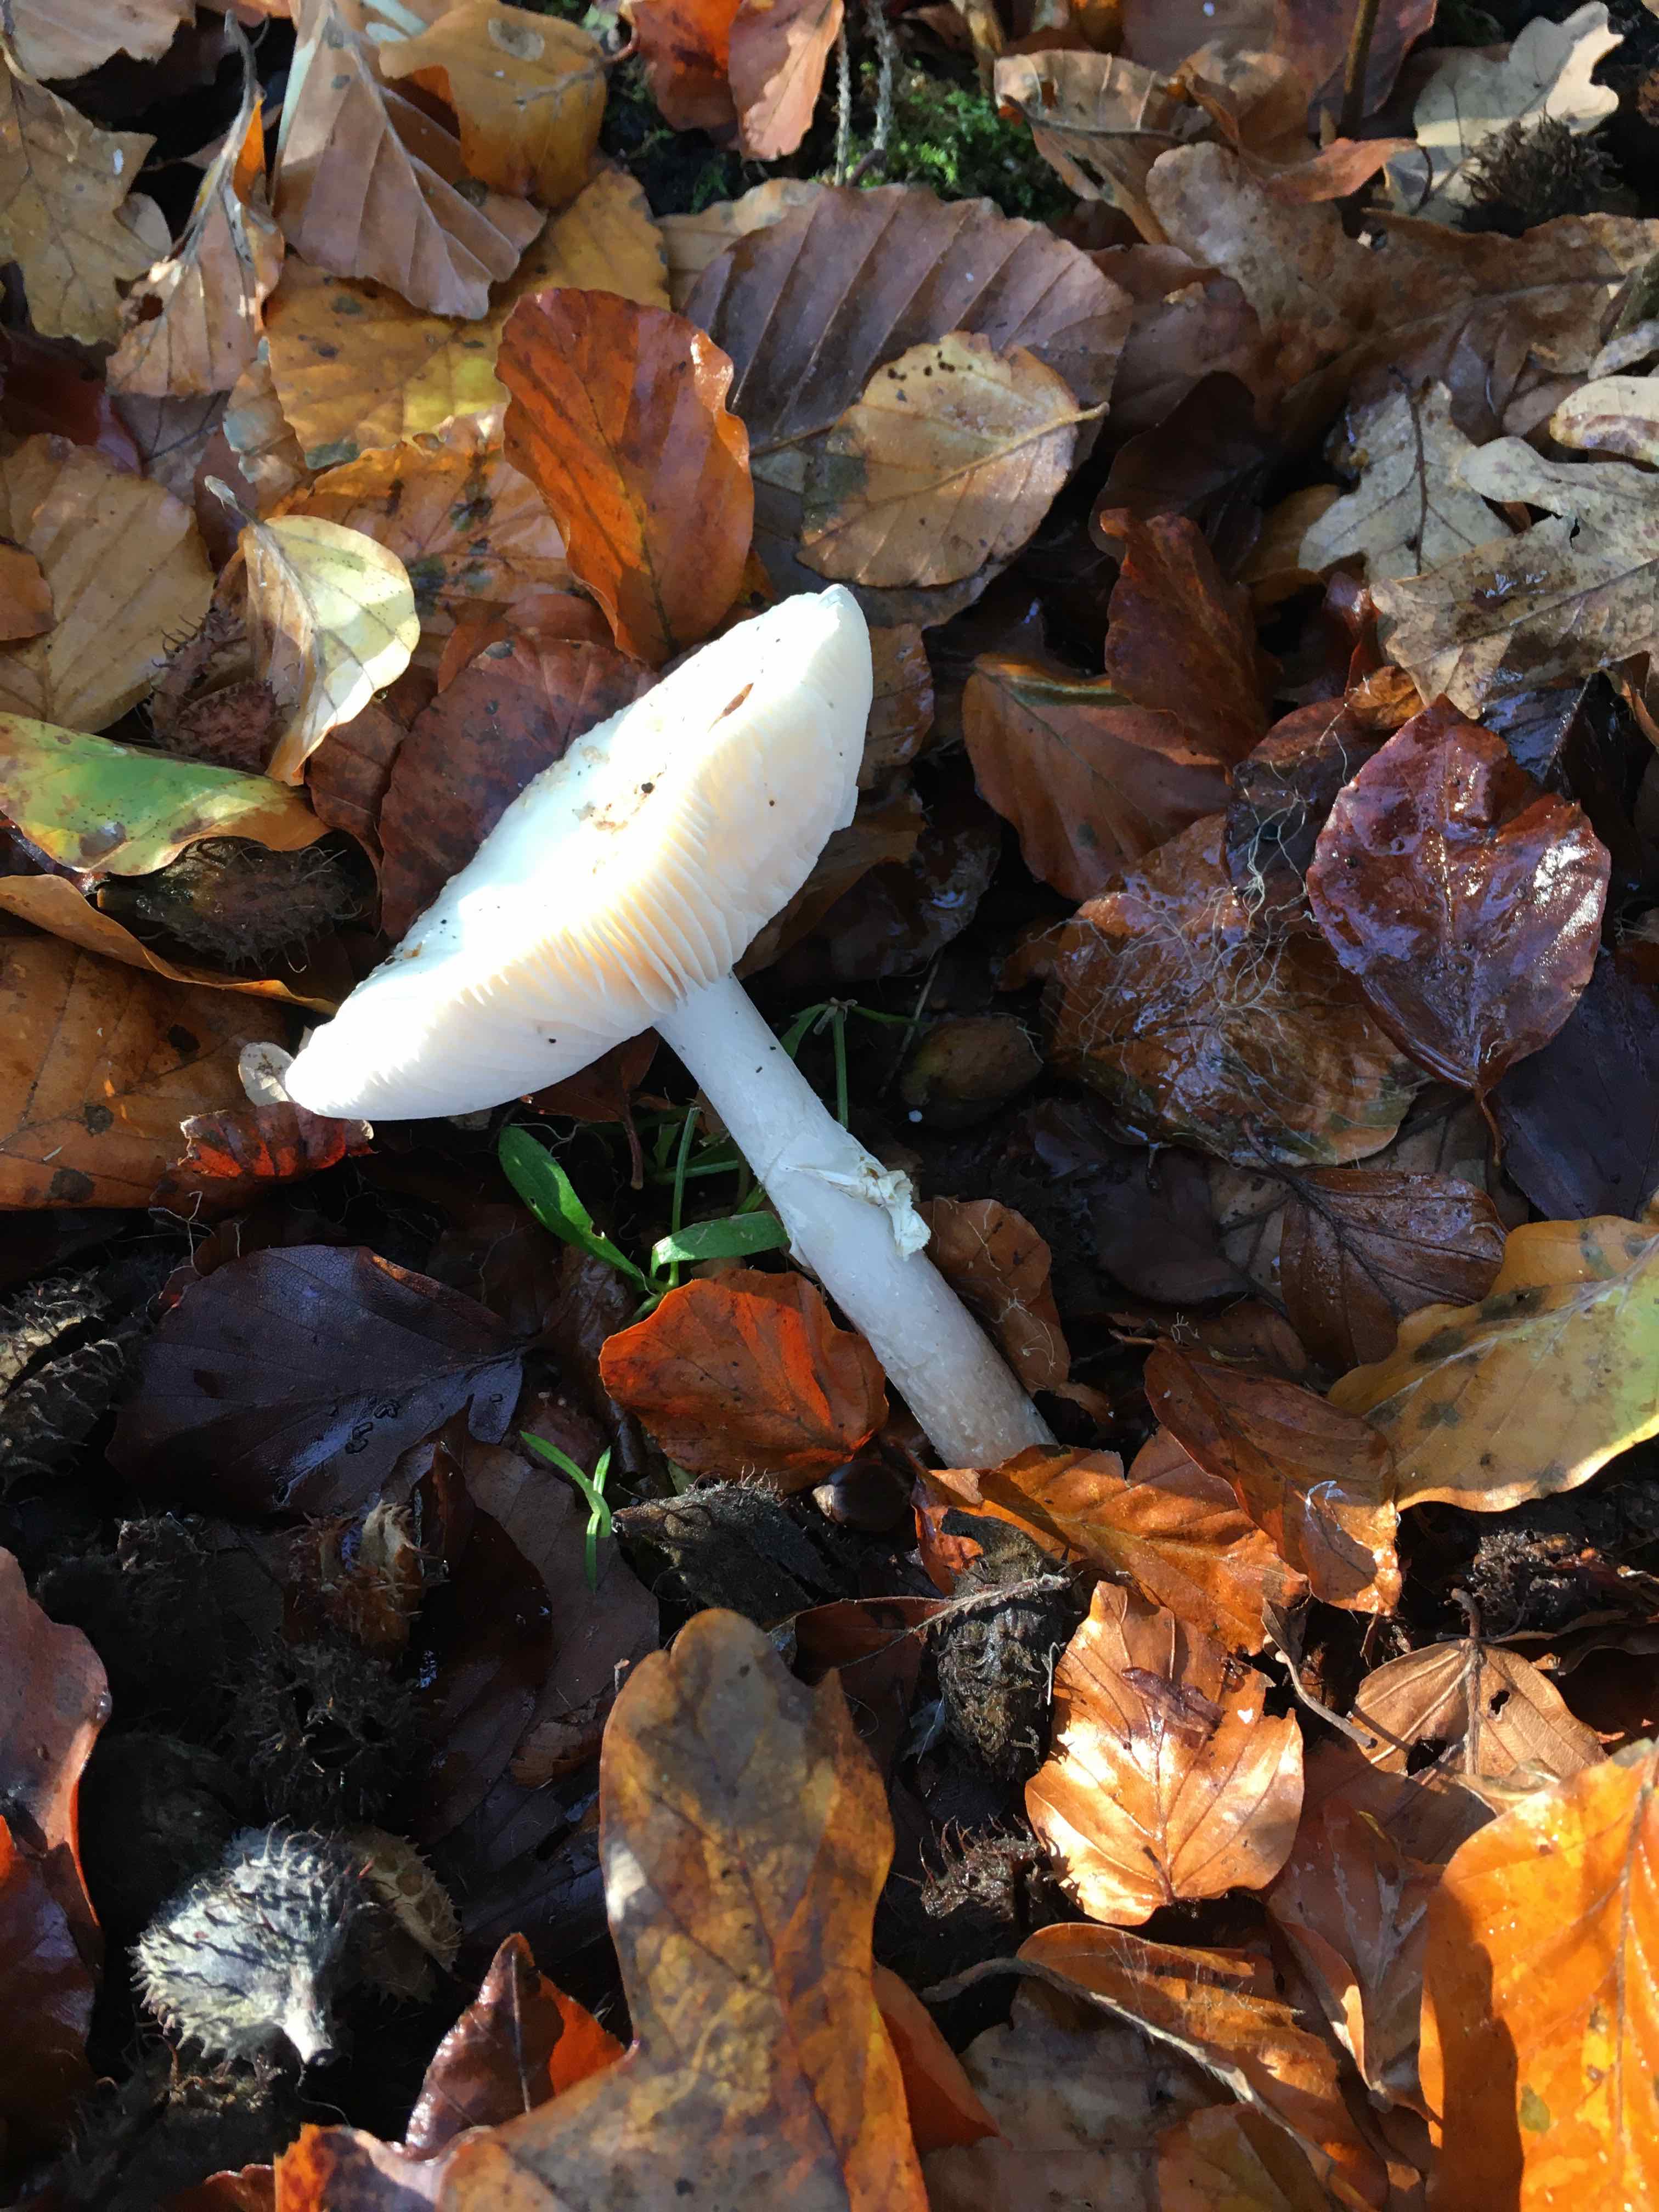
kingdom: Fungi
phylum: Basidiomycota
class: Agaricomycetes
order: Agaricales
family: Amanitaceae
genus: Amanita
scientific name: Amanita citrina
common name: kugleknoldet fluesvamp
